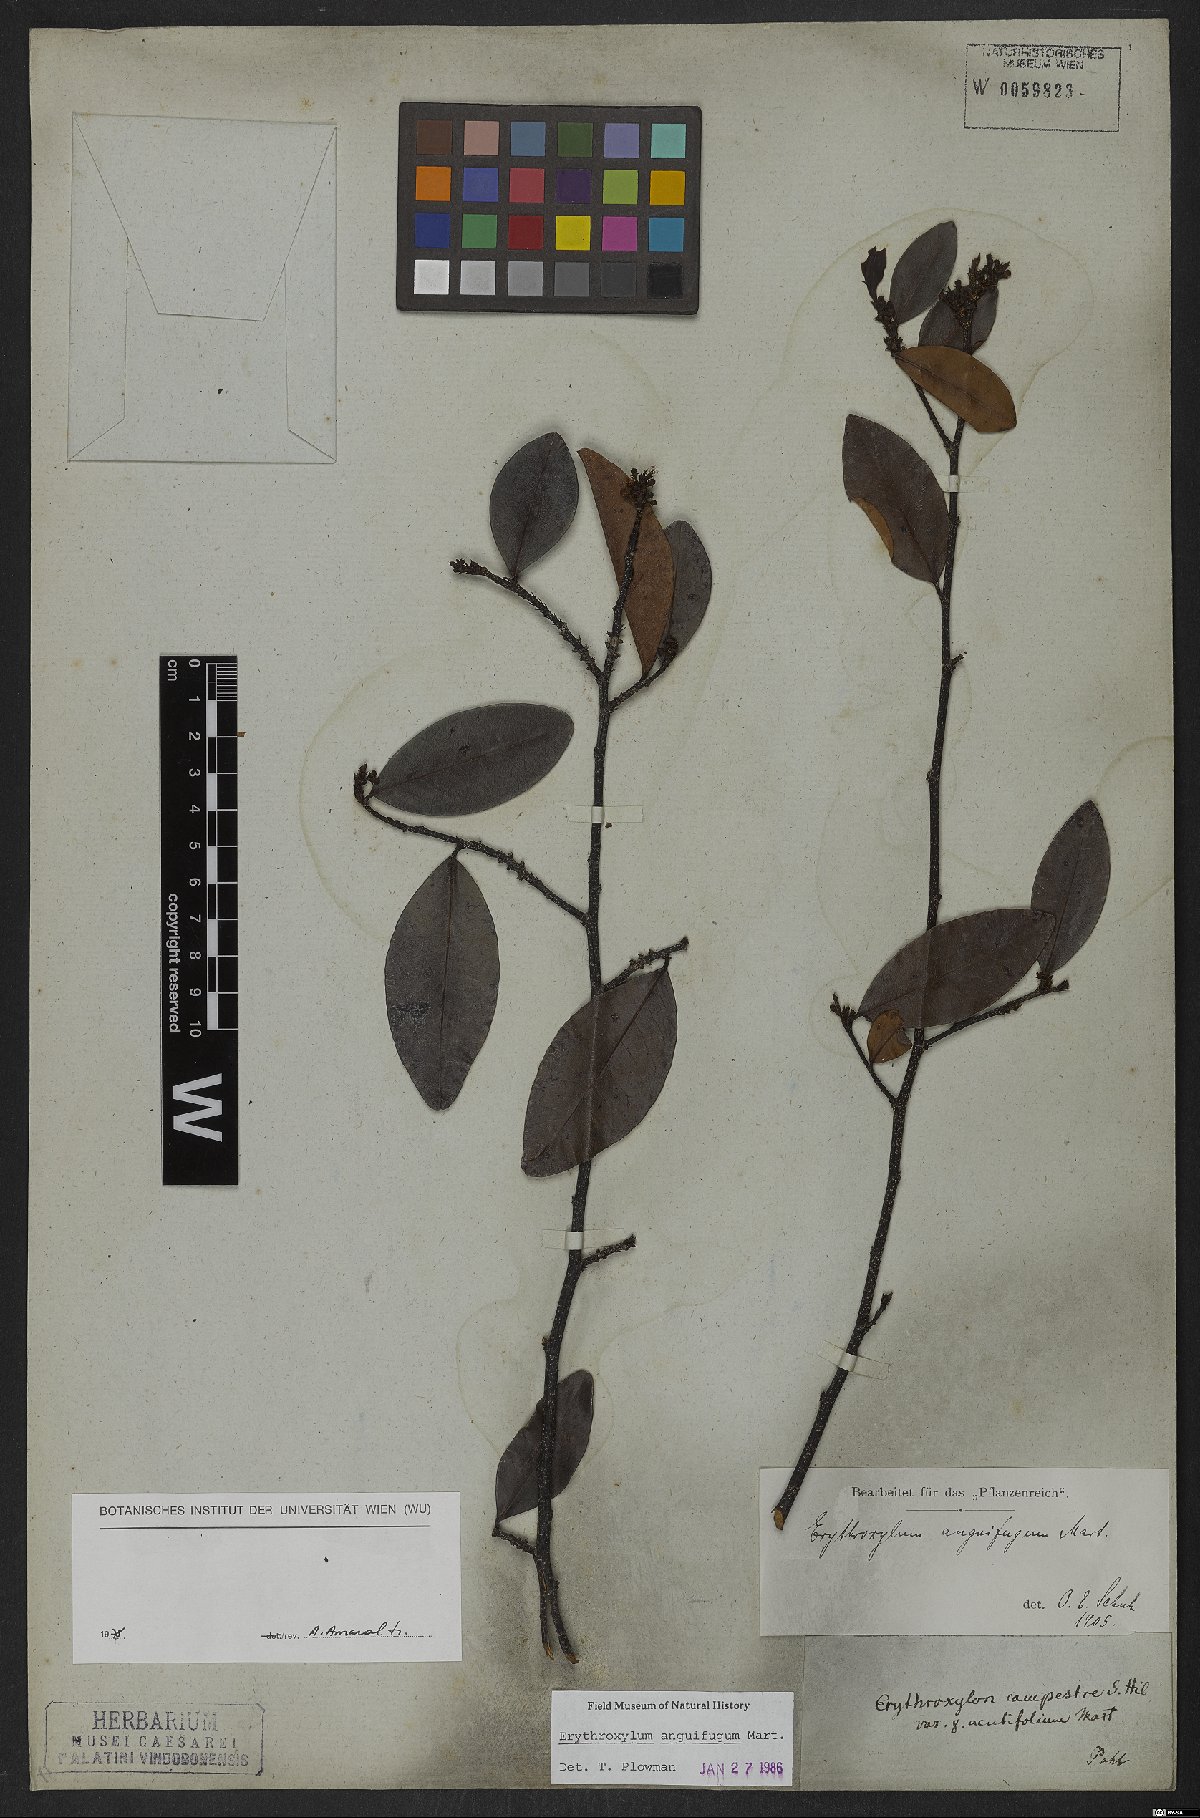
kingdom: Plantae
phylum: Tracheophyta
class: Magnoliopsida
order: Malpighiales
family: Erythroxylaceae
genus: Erythroxylum
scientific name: Erythroxylum anguifugum
